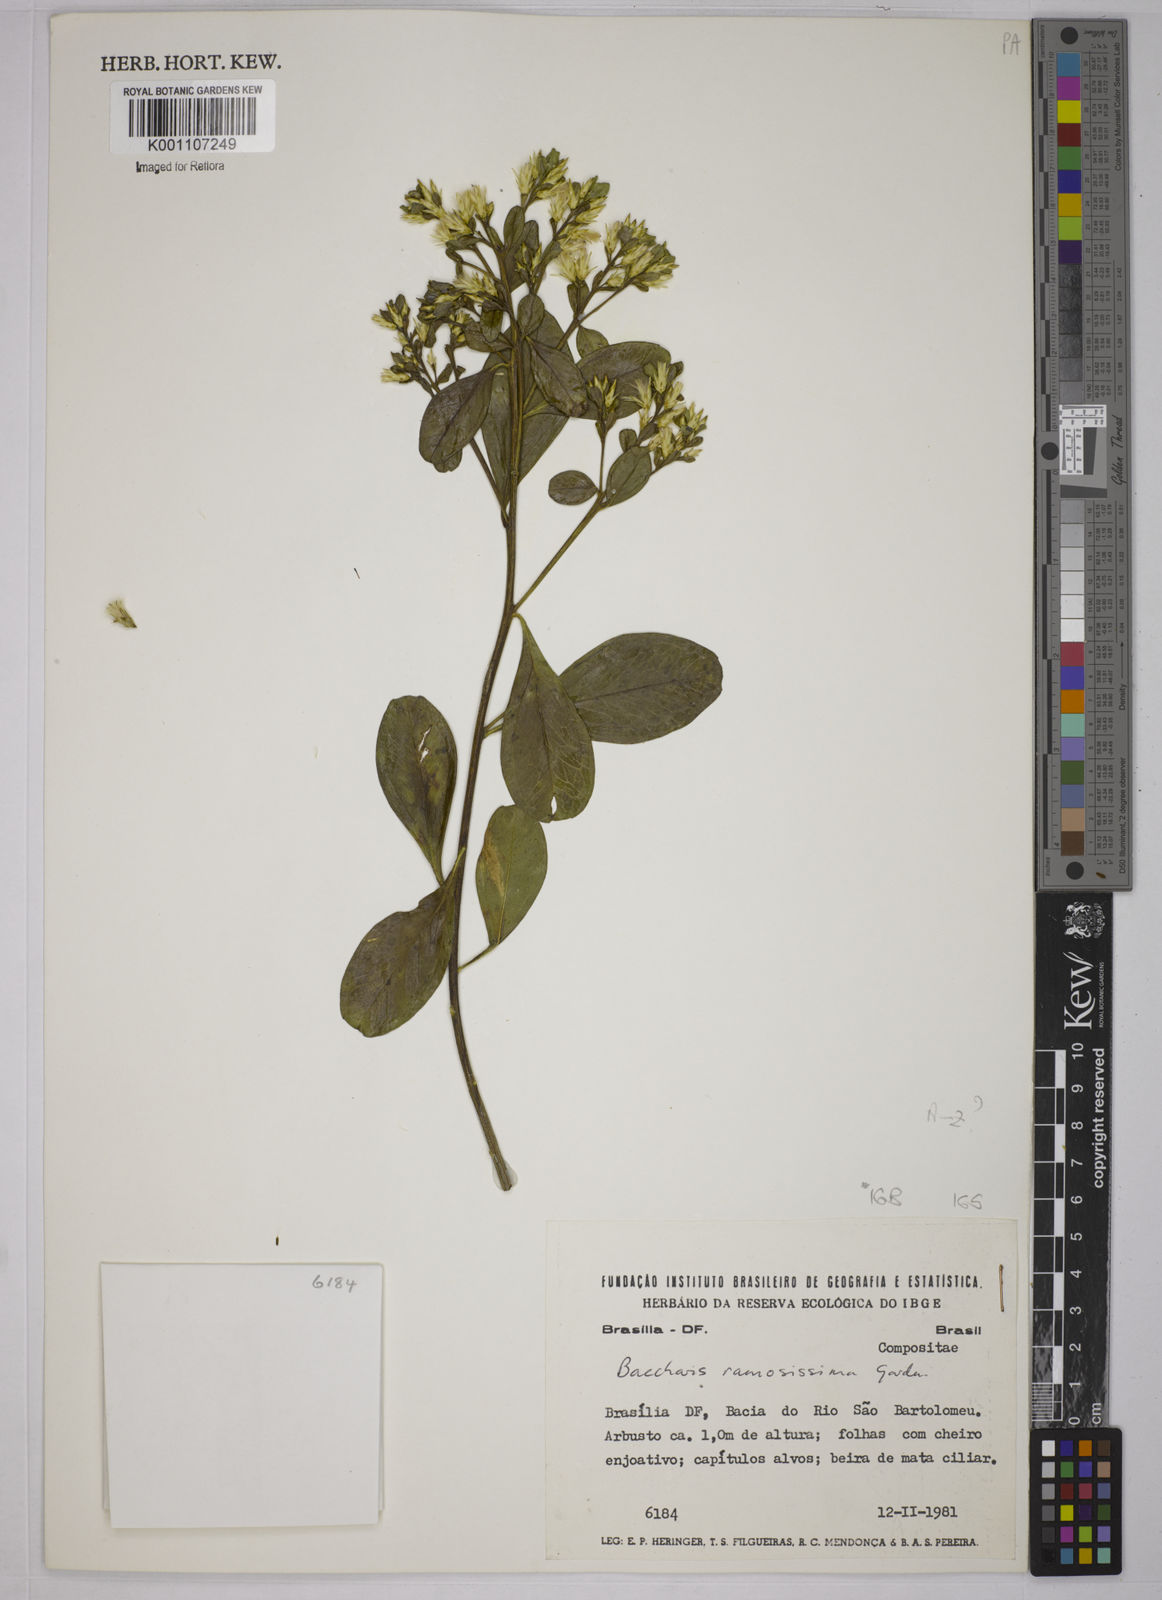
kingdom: Plantae
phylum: Tracheophyta
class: Magnoliopsida
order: Asterales
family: Asteraceae
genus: Baccharis
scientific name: Baccharis retusa
